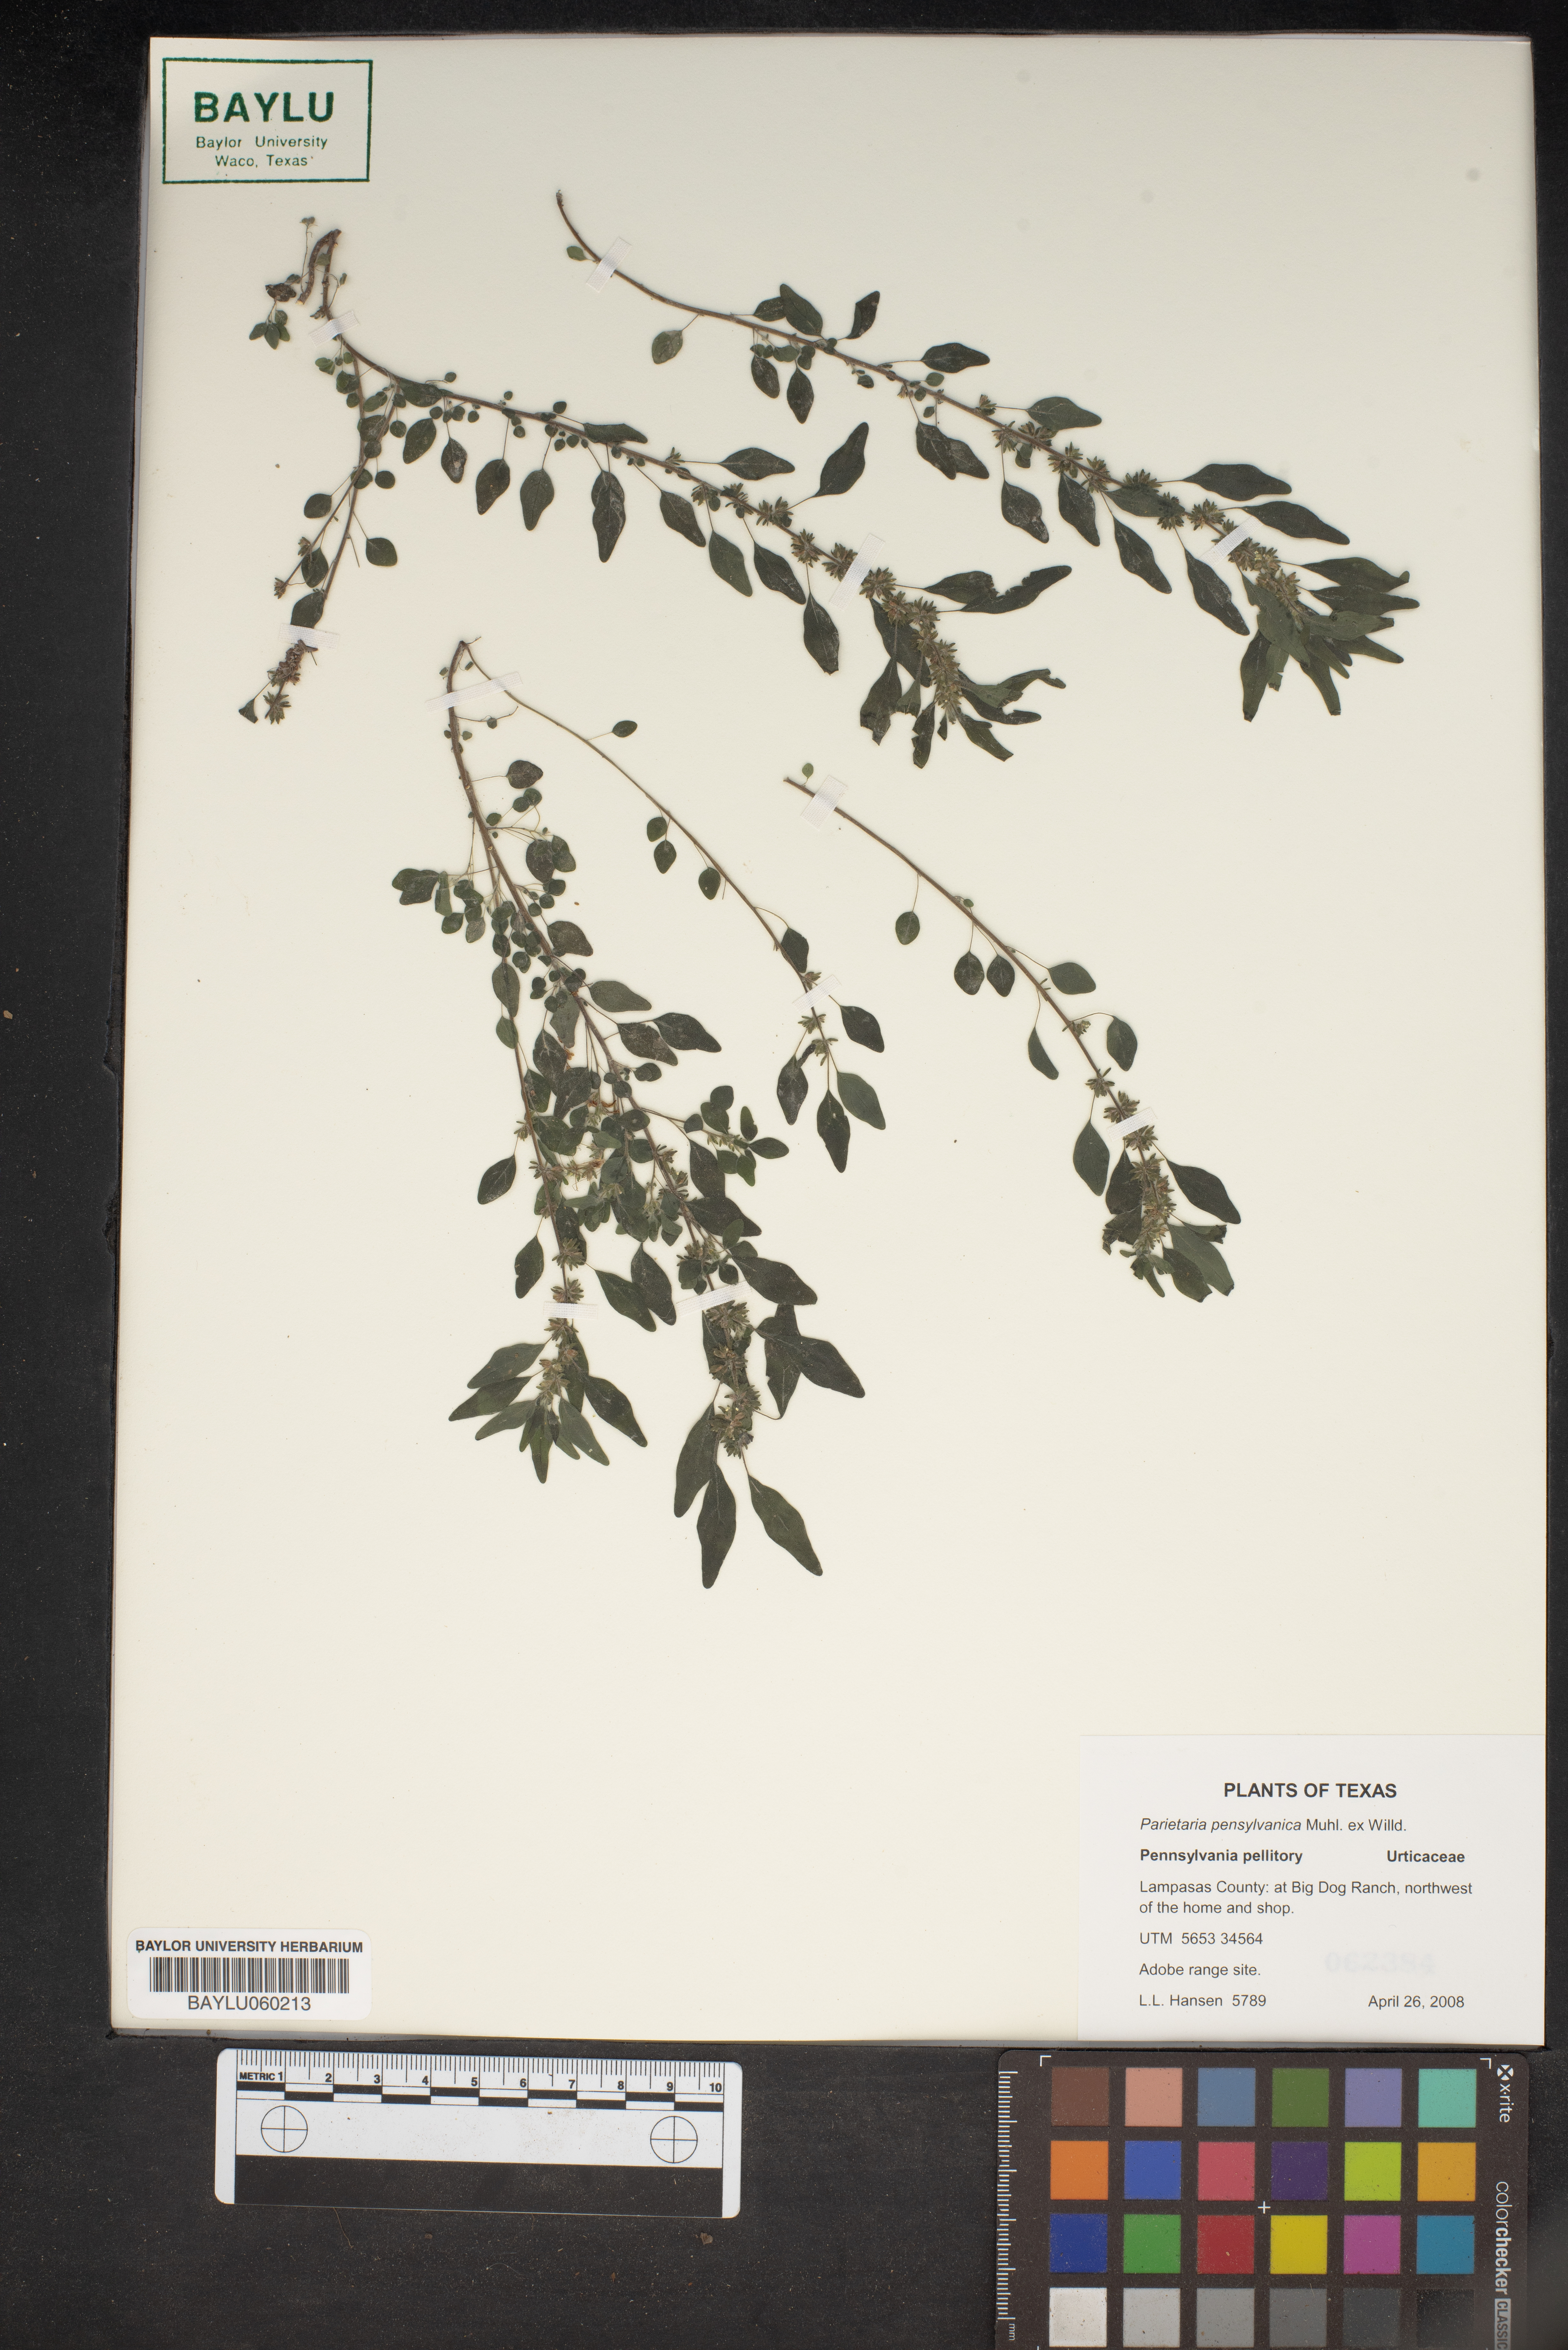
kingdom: Plantae
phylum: Tracheophyta
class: Magnoliopsida
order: Rosales
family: Urticaceae
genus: Parietaria
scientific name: Parietaria pensylvanica
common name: Pennsylvania pellitory
